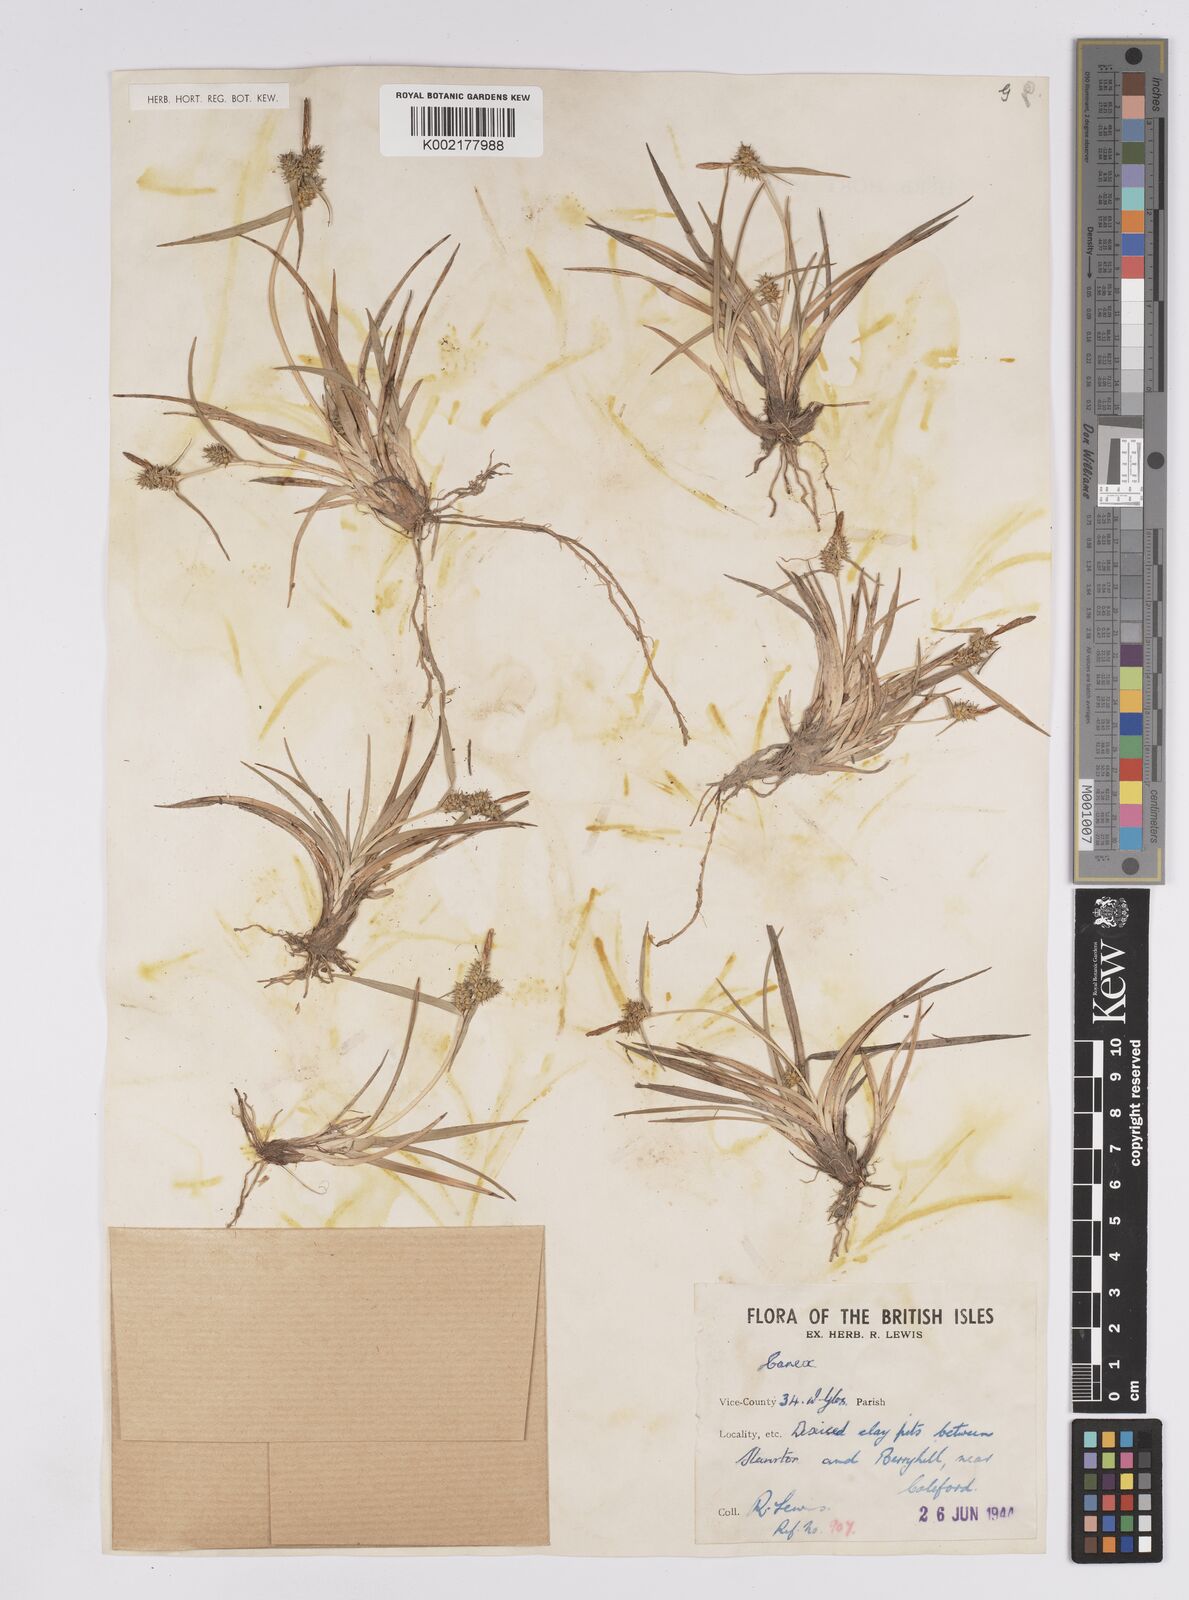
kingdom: Plantae
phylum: Tracheophyta
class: Liliopsida
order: Poales
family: Cyperaceae
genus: Carex
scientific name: Carex demissa
